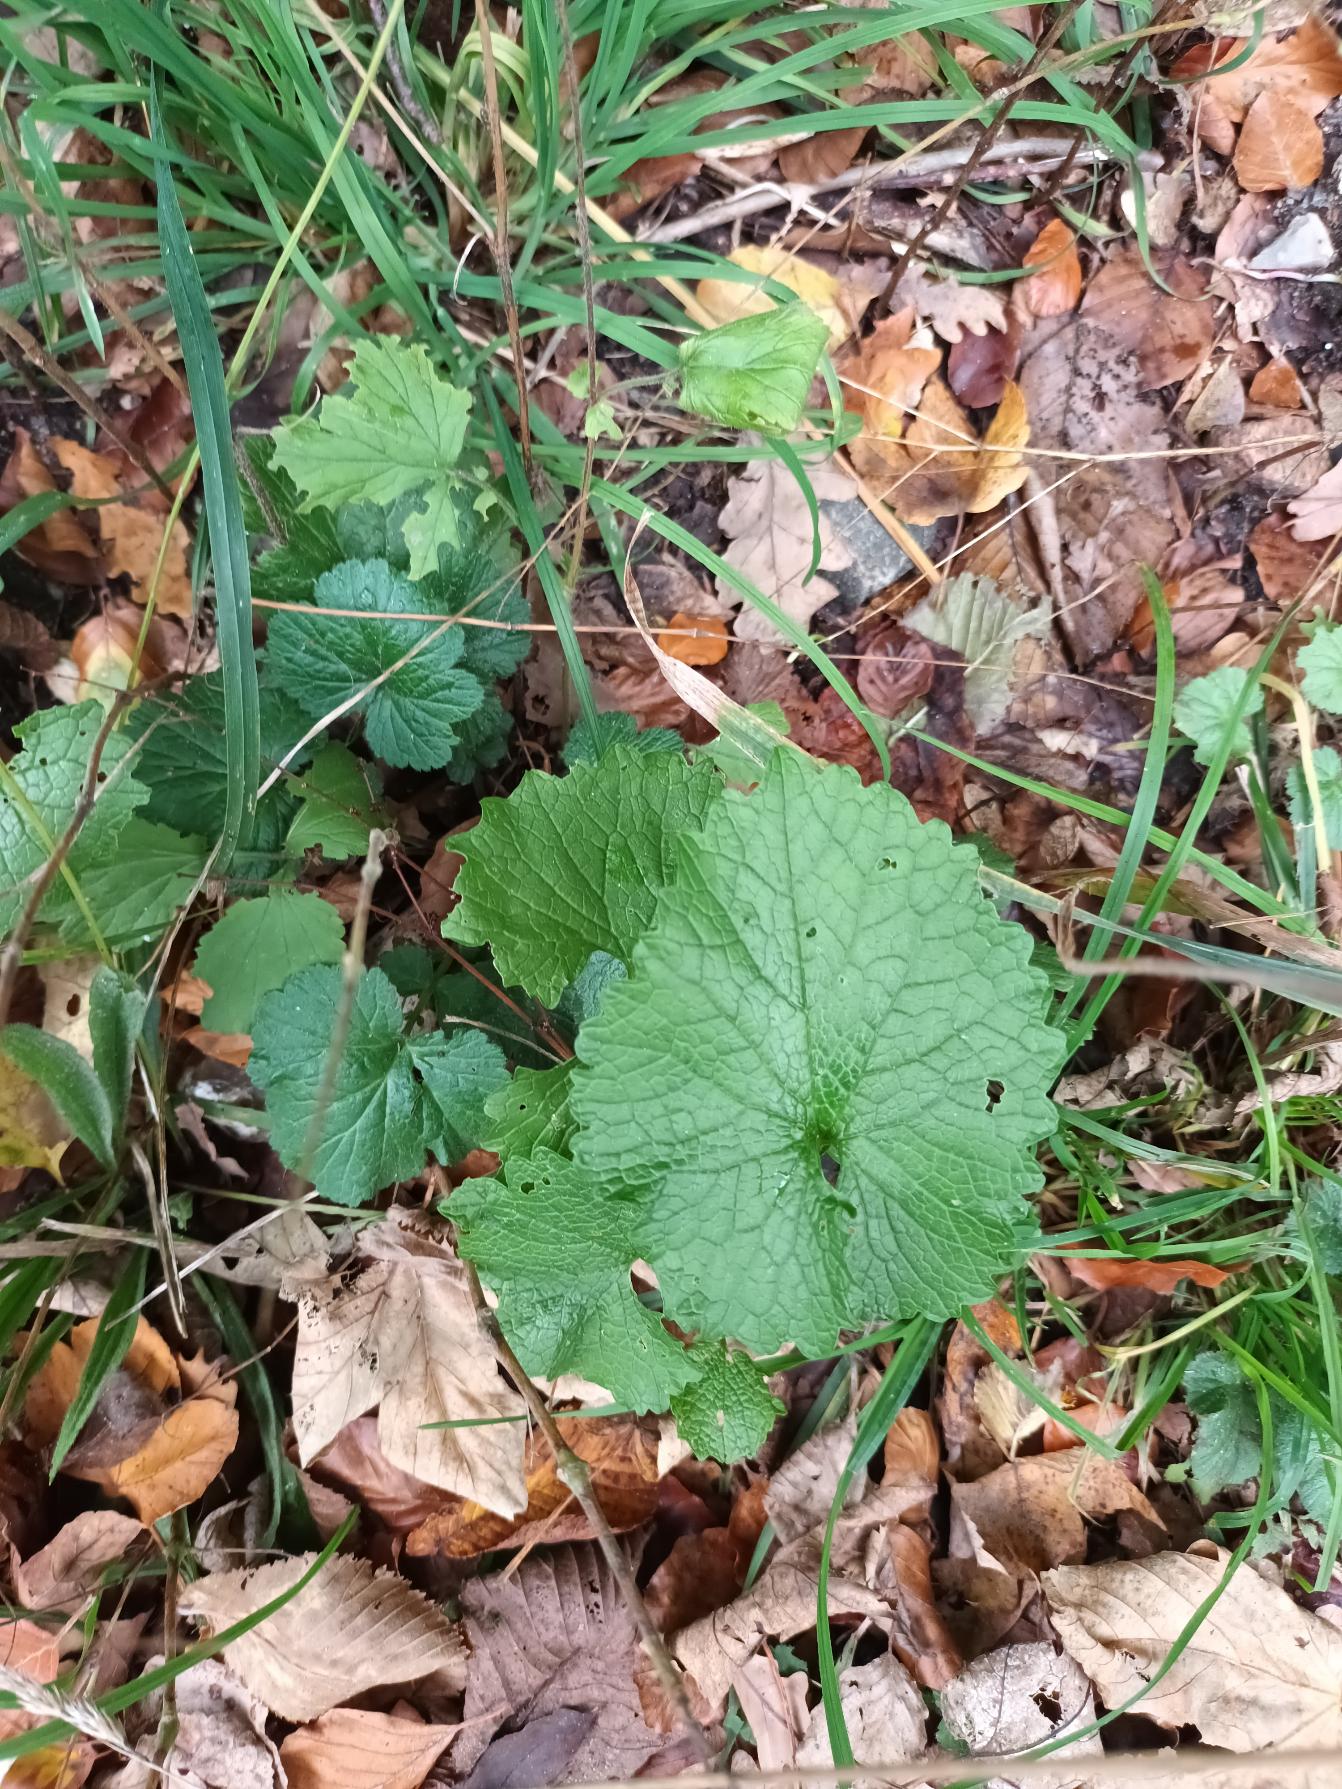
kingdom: Plantae
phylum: Tracheophyta
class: Magnoliopsida
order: Brassicales
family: Brassicaceae
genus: Alliaria
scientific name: Alliaria petiolata
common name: Løgkarse
